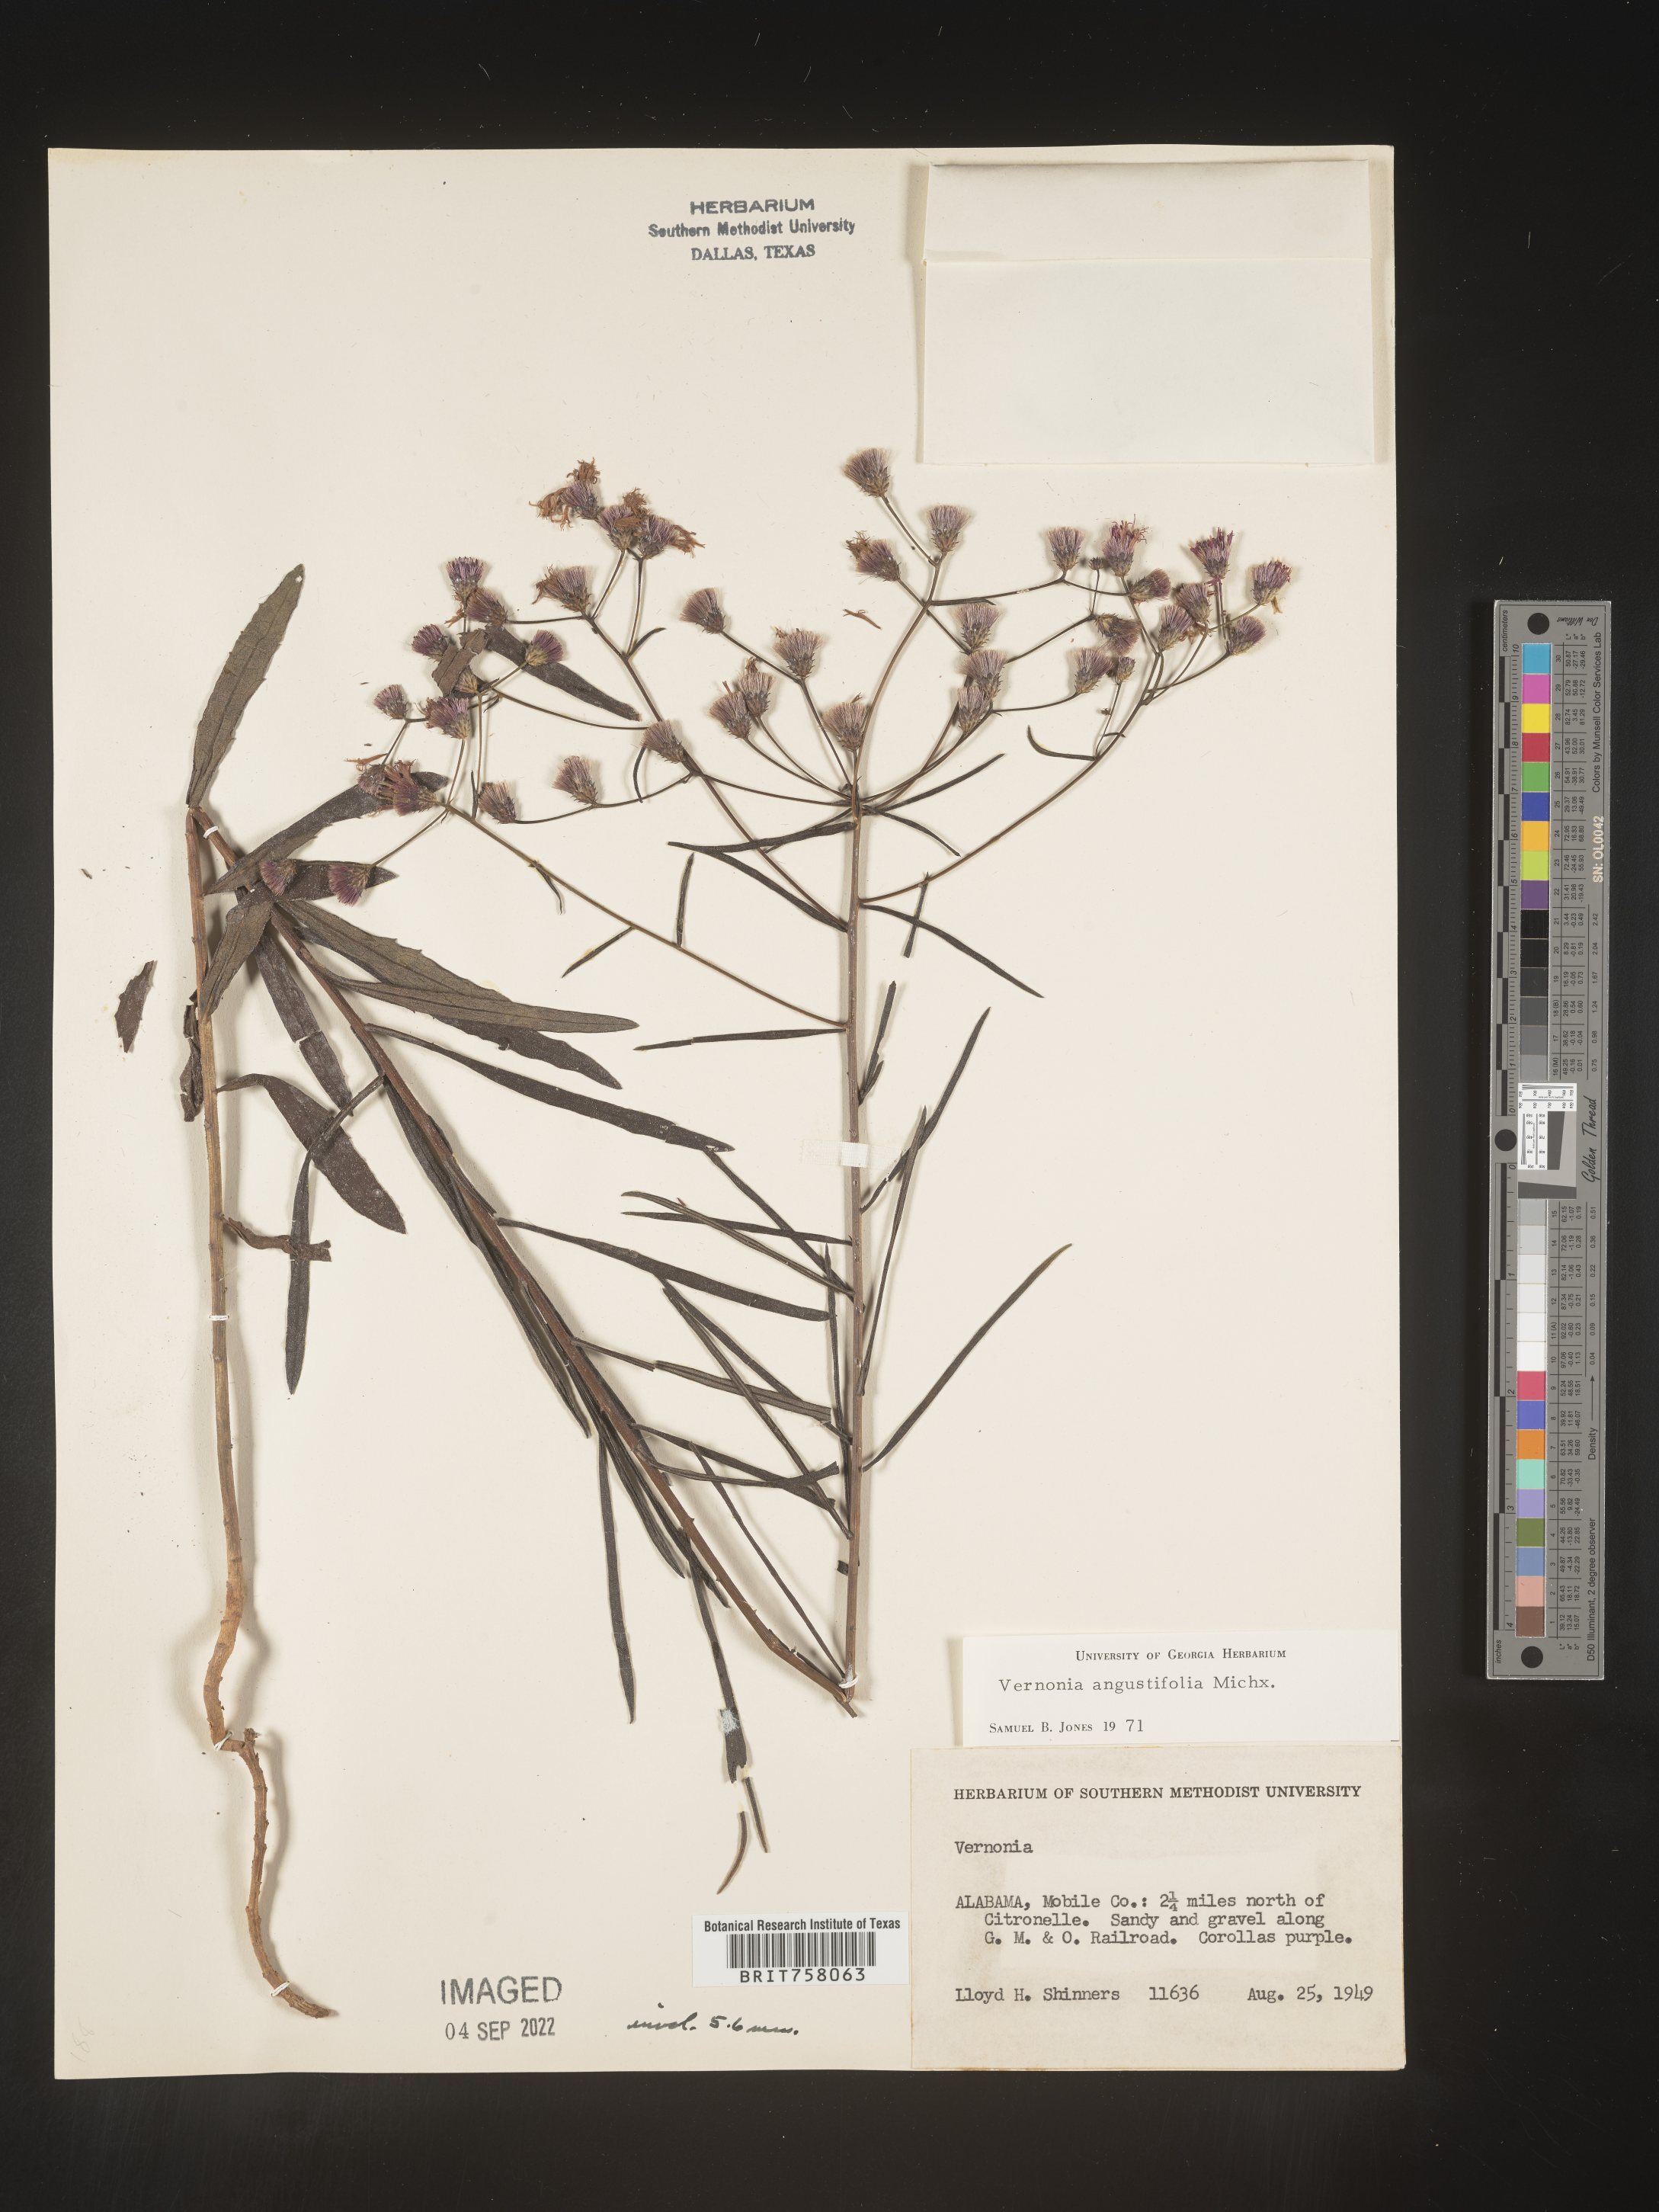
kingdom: Plantae
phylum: Tracheophyta
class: Magnoliopsida
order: Asterales
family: Asteraceae
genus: Vernonia
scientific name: Vernonia angustifolia
